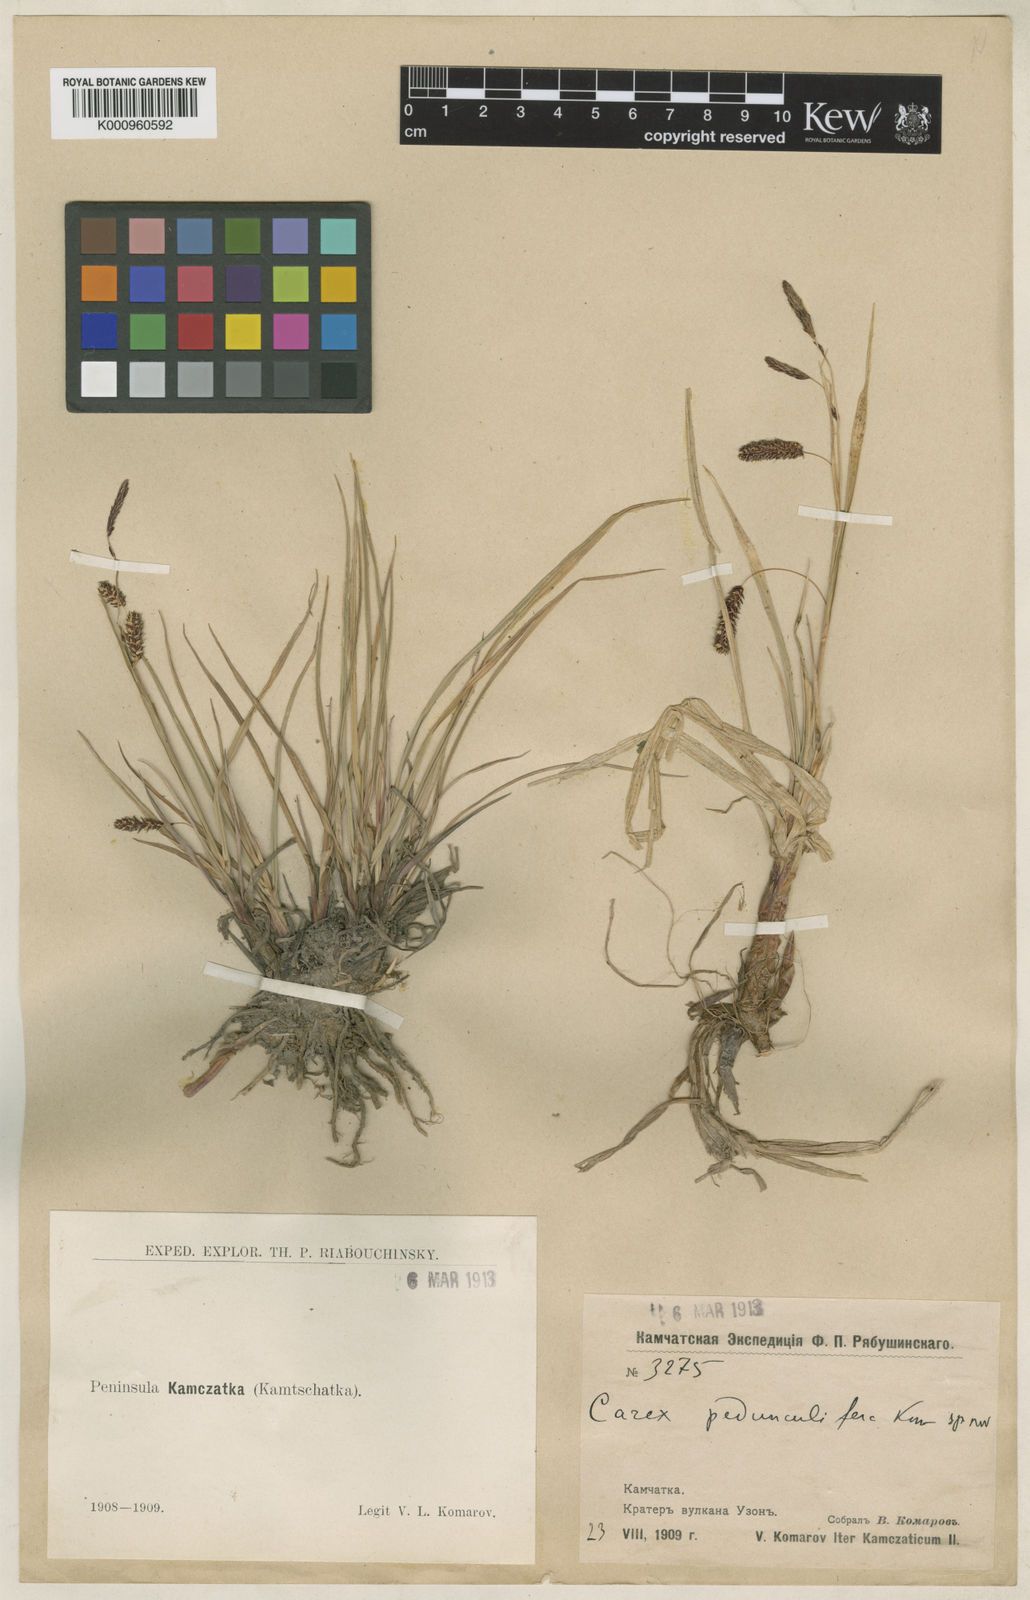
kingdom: Plantae
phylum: Tracheophyta
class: Liliopsida
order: Poales
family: Cyperaceae
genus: Carex
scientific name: Carex lyngbyei
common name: Lyngbye's sedge
